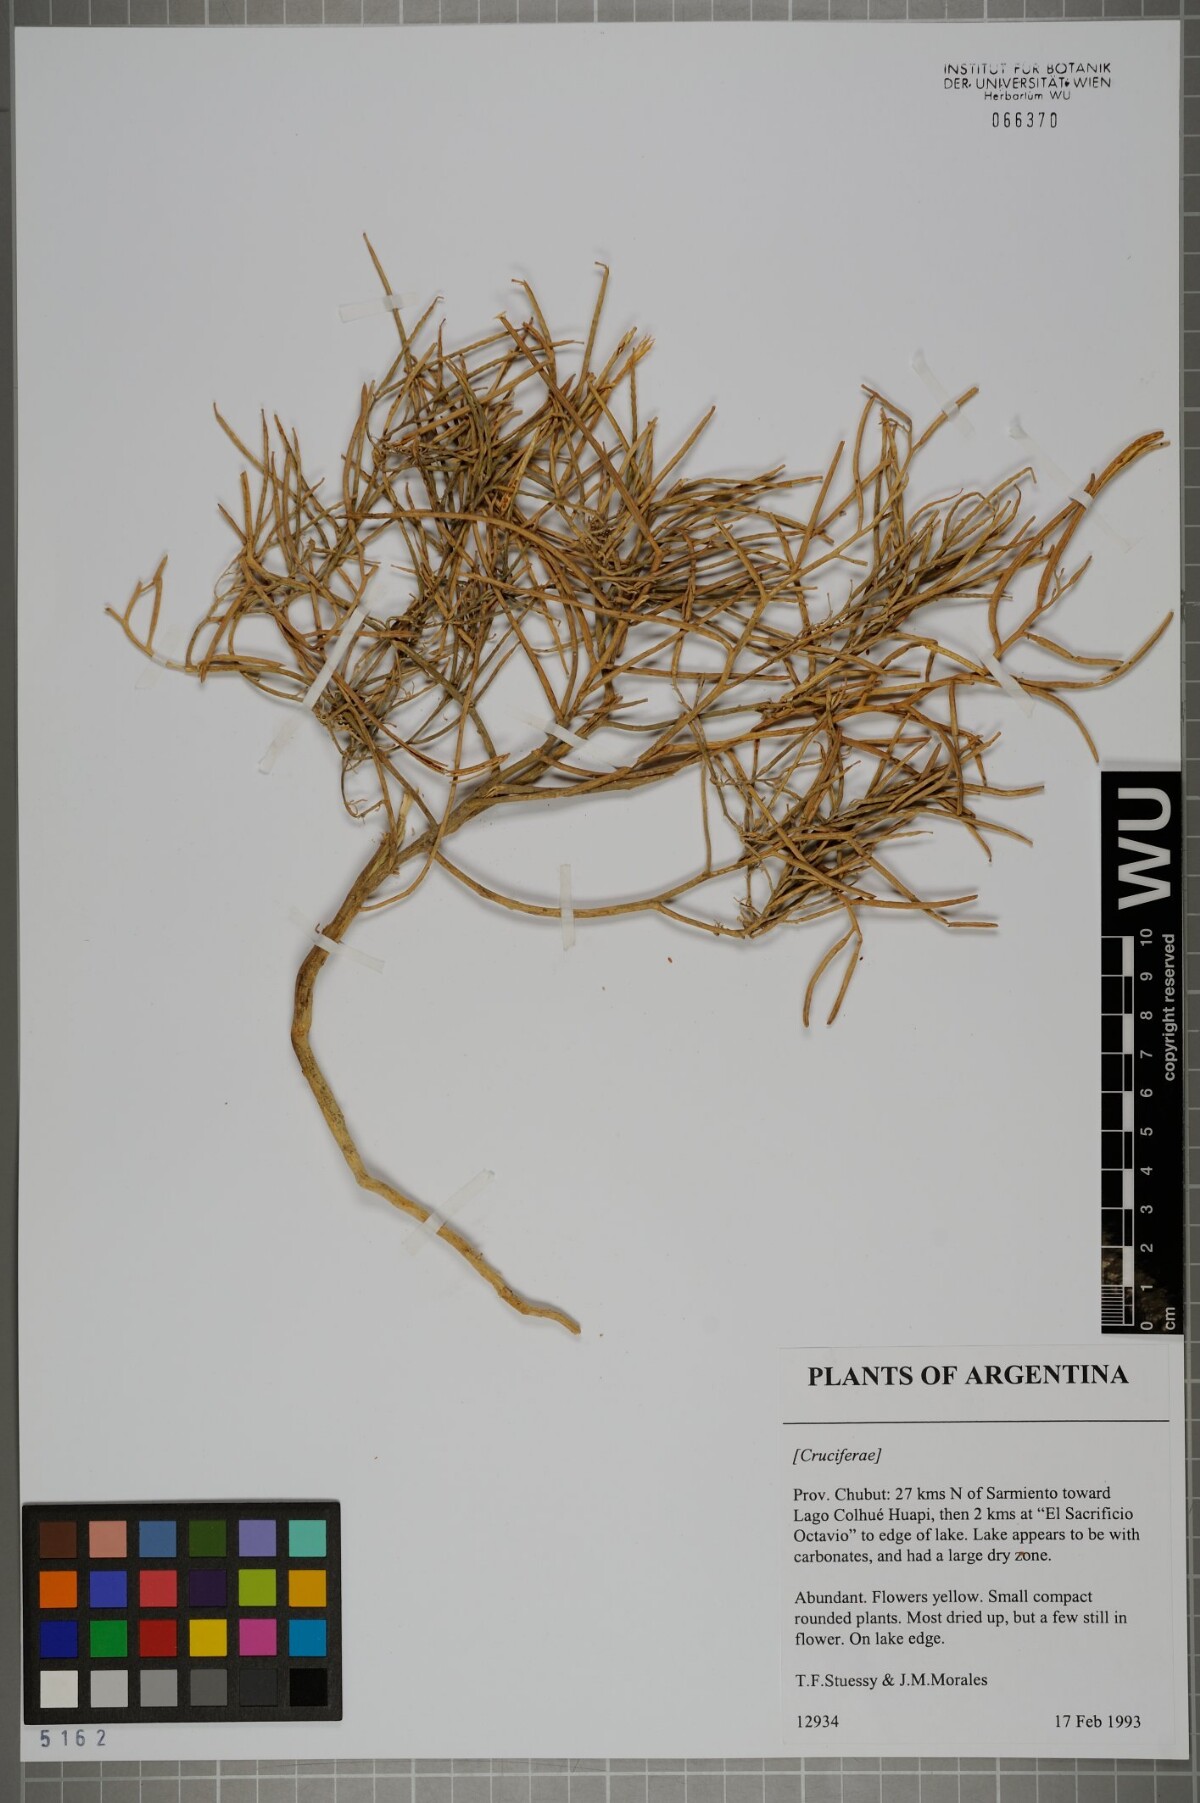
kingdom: Plantae
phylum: Tracheophyta
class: Magnoliopsida
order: Brassicales
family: Brassicaceae
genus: Erysimum
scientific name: Erysimum repandum
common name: Spreading wallflower
